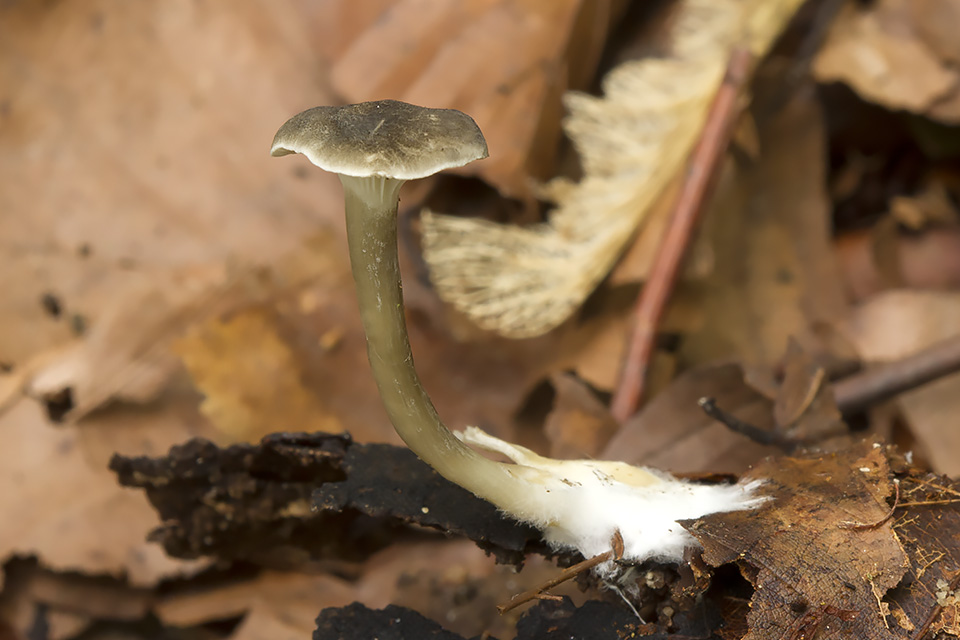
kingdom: Fungi
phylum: Basidiomycota
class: Agaricomycetes
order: Agaricales
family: Hygrophoraceae
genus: Spodocybe
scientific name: Spodocybe trulliformis
